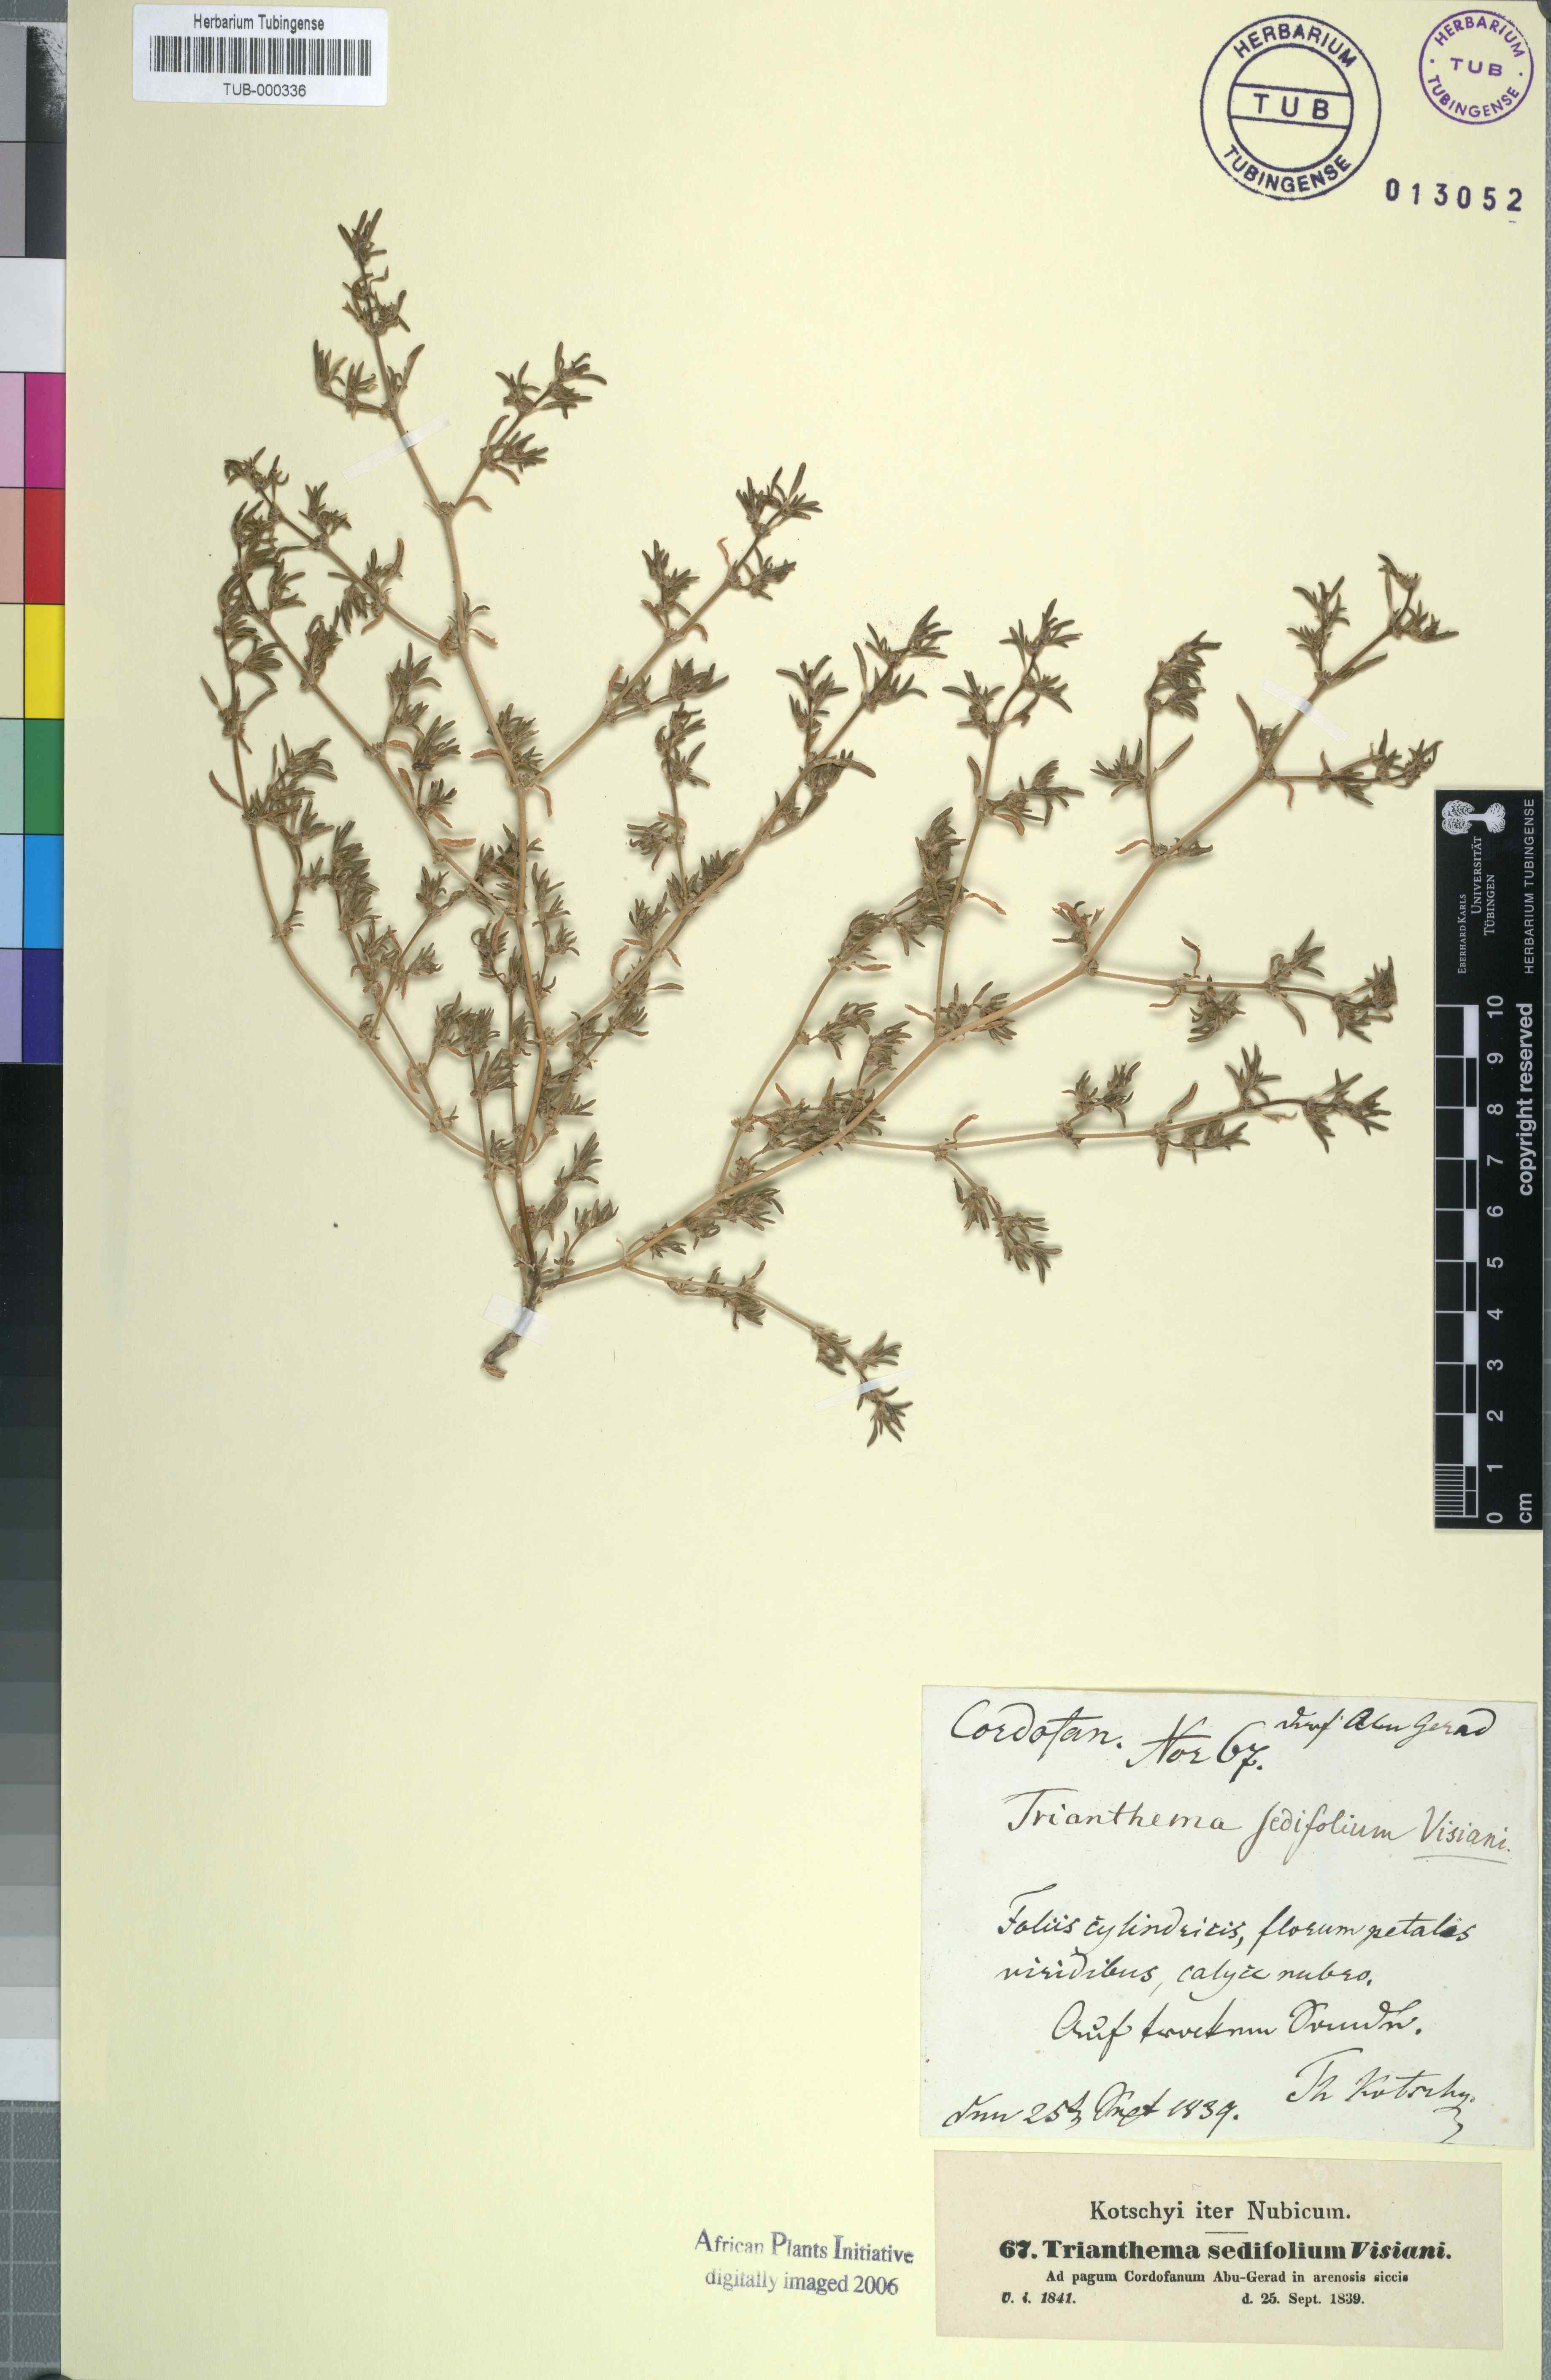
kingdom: Plantae
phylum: Tracheophyta
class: Magnoliopsida
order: Caryophyllales
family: Aizoaceae
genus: Trianthema
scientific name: Trianthema crystallinum
